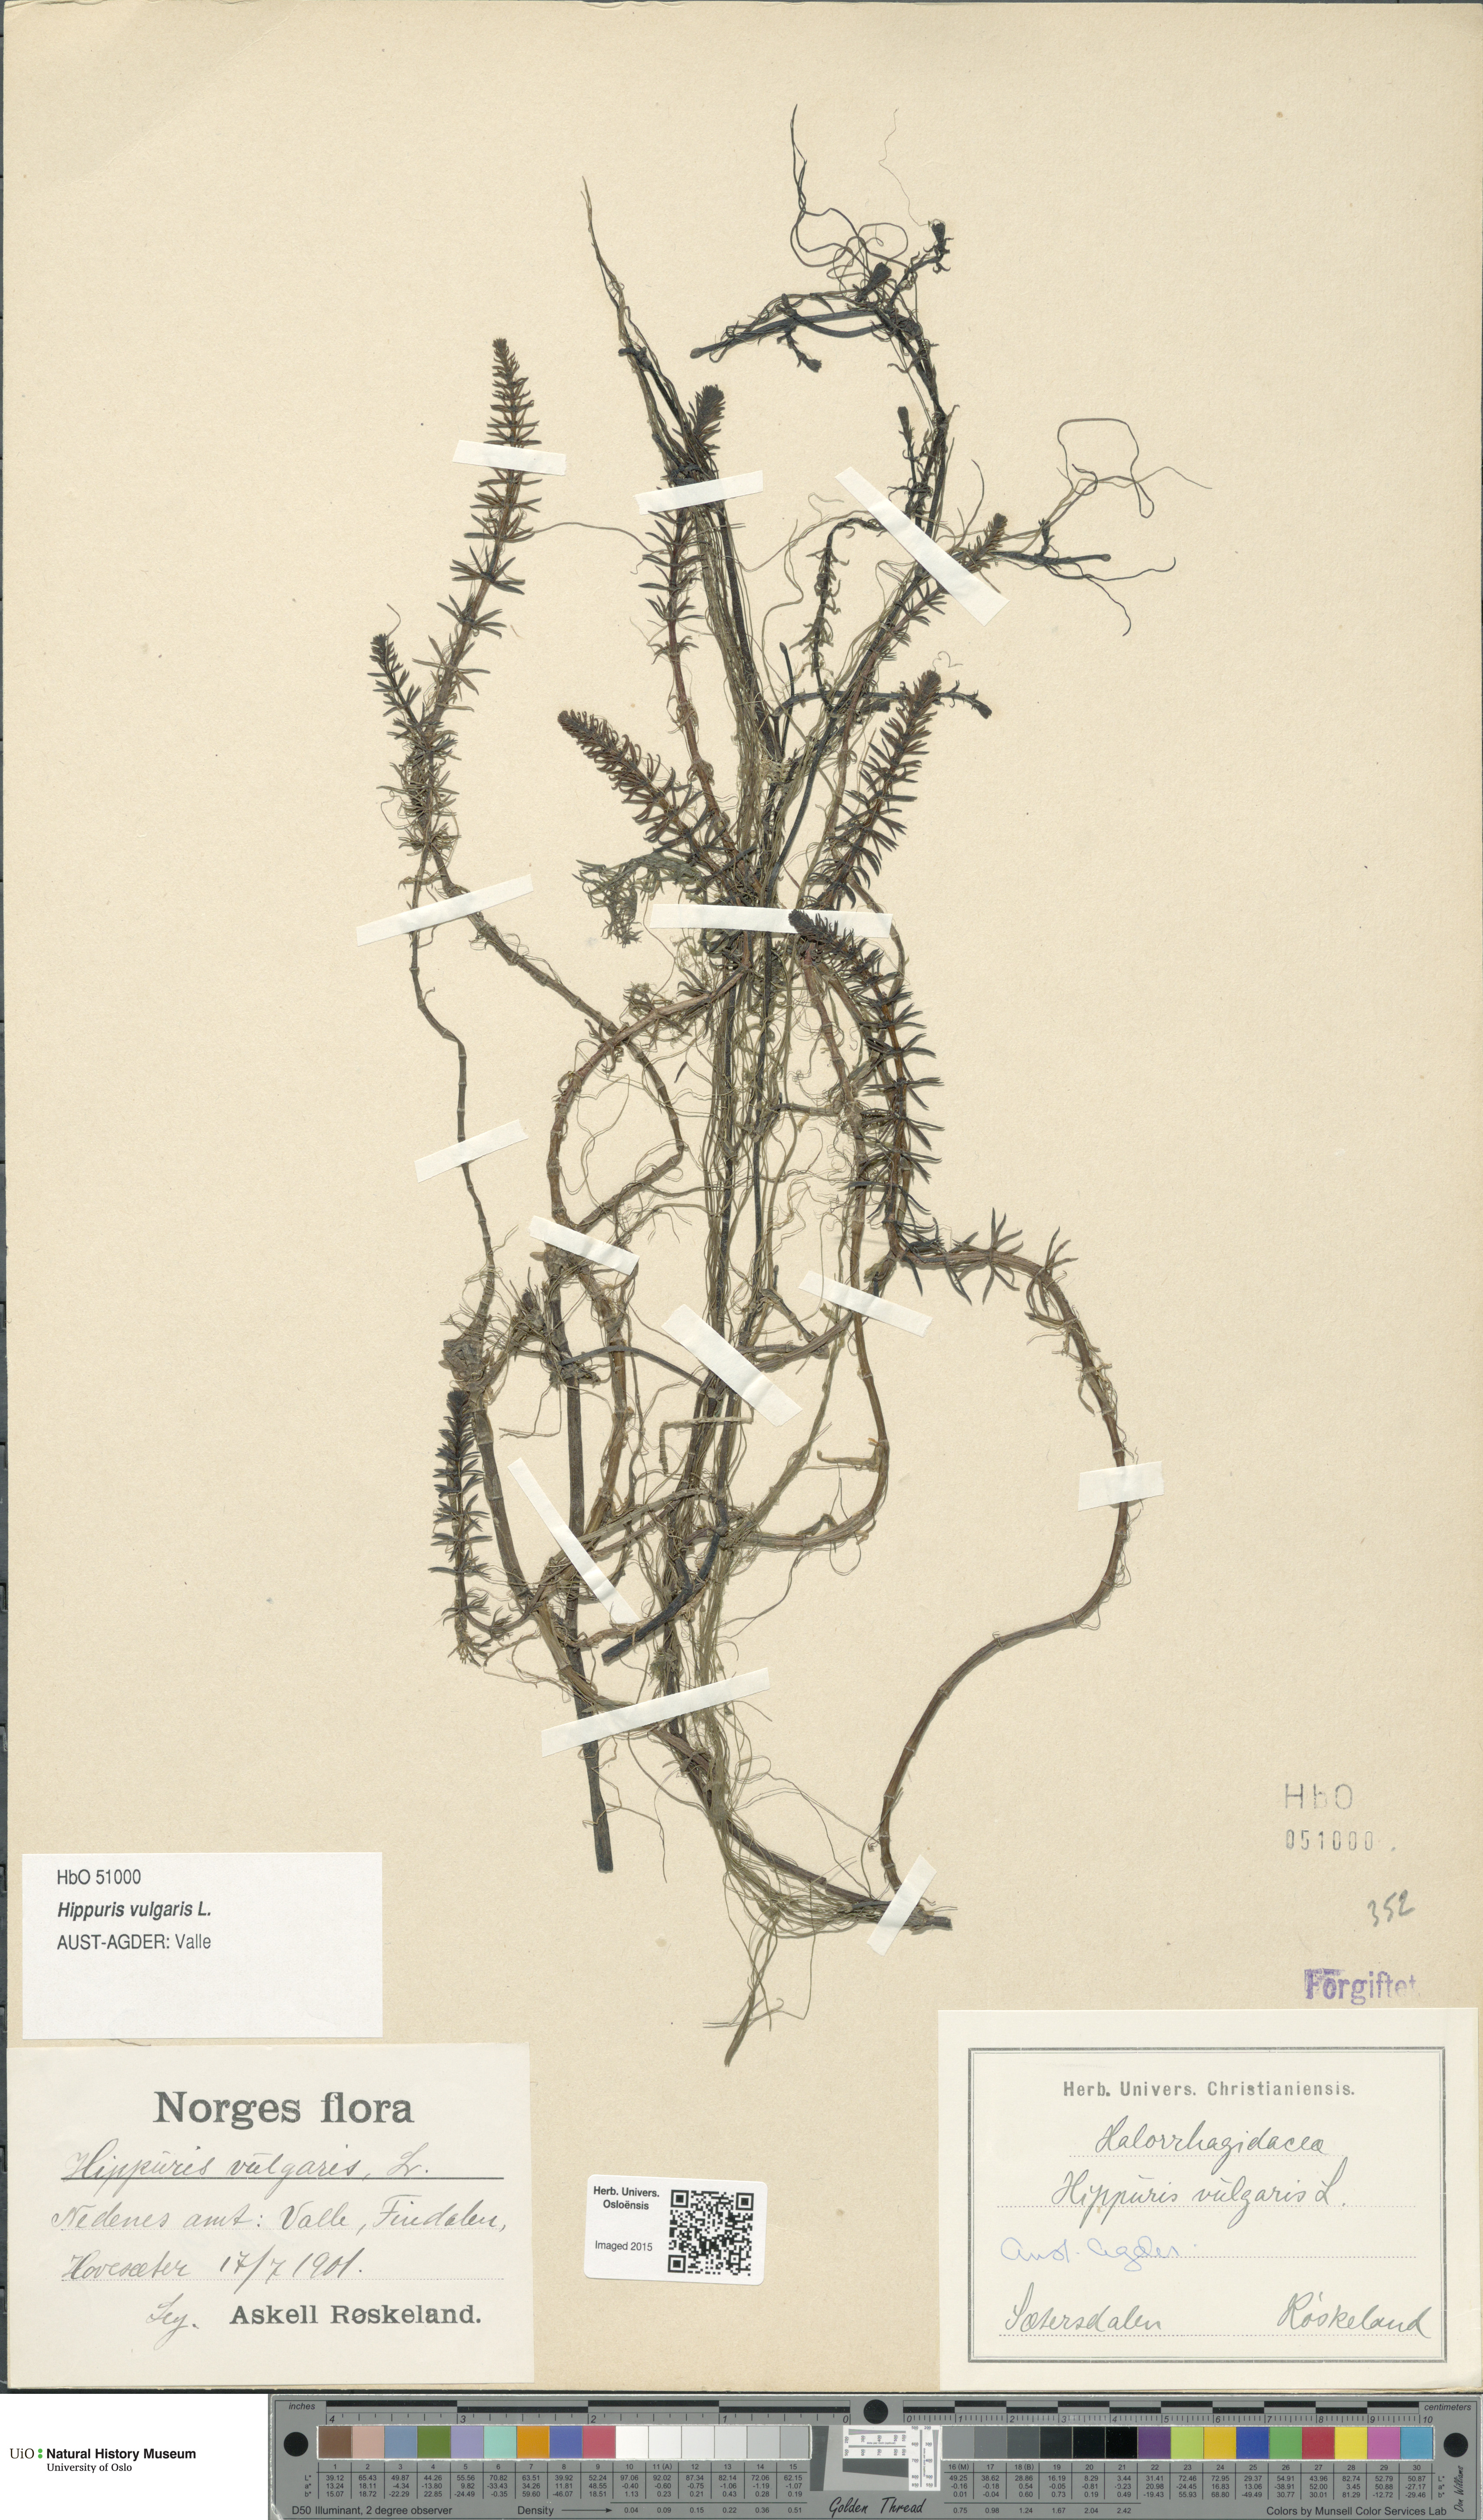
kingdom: Plantae
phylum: Tracheophyta
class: Magnoliopsida
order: Lamiales
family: Plantaginaceae
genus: Hippuris
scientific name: Hippuris vulgaris
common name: Mare's-tail
